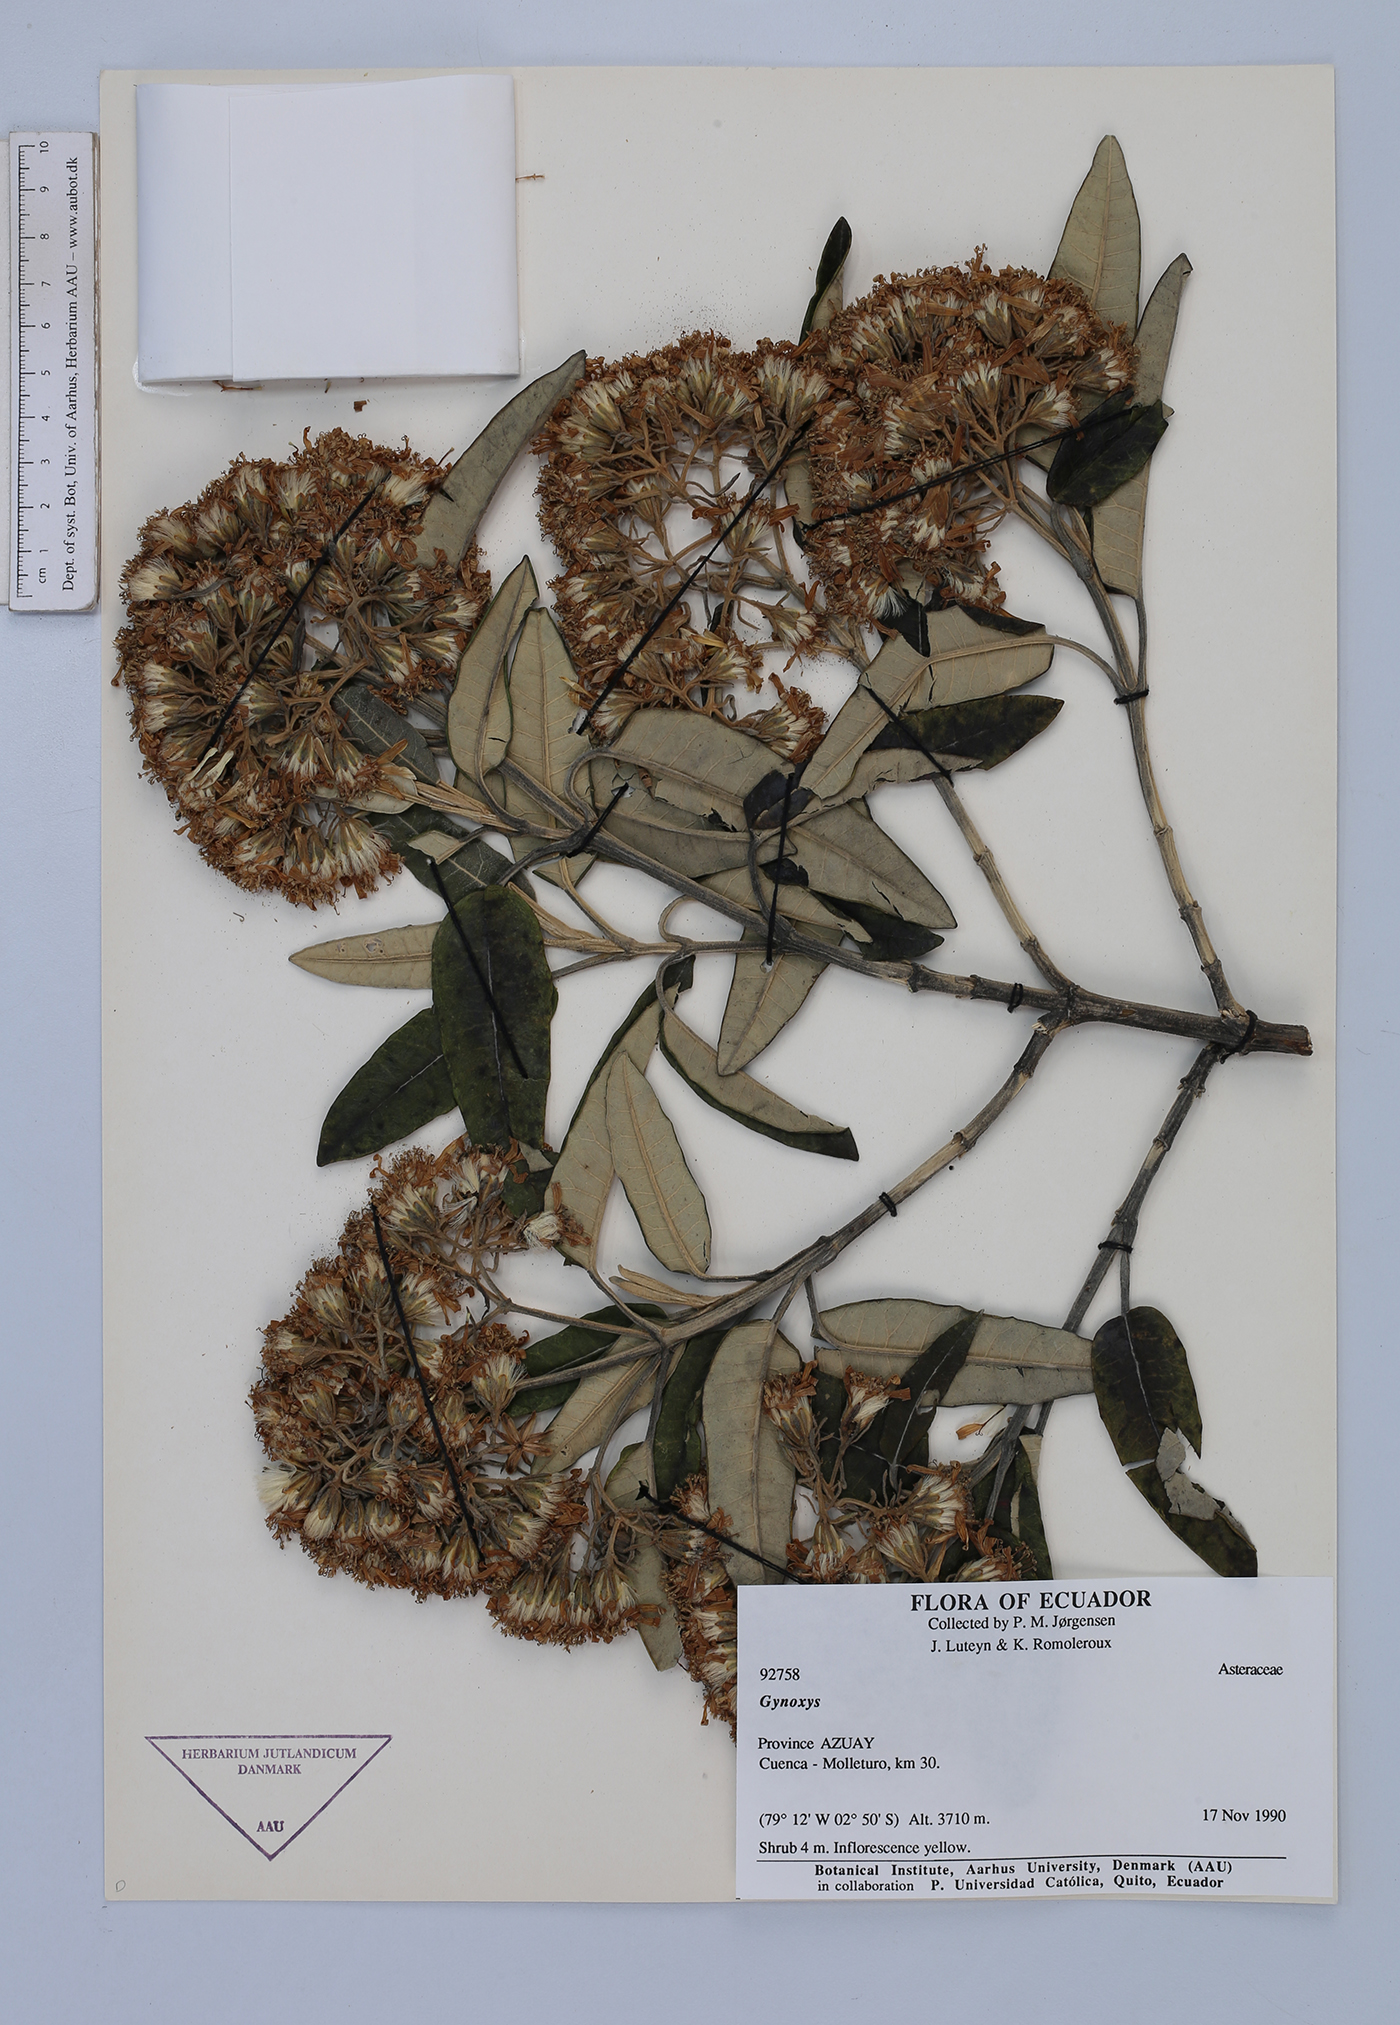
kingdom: Plantae
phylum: Tracheophyta
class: Magnoliopsida
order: Asterales
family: Asteraceae
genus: Gynoxys
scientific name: Gynoxys hallii
